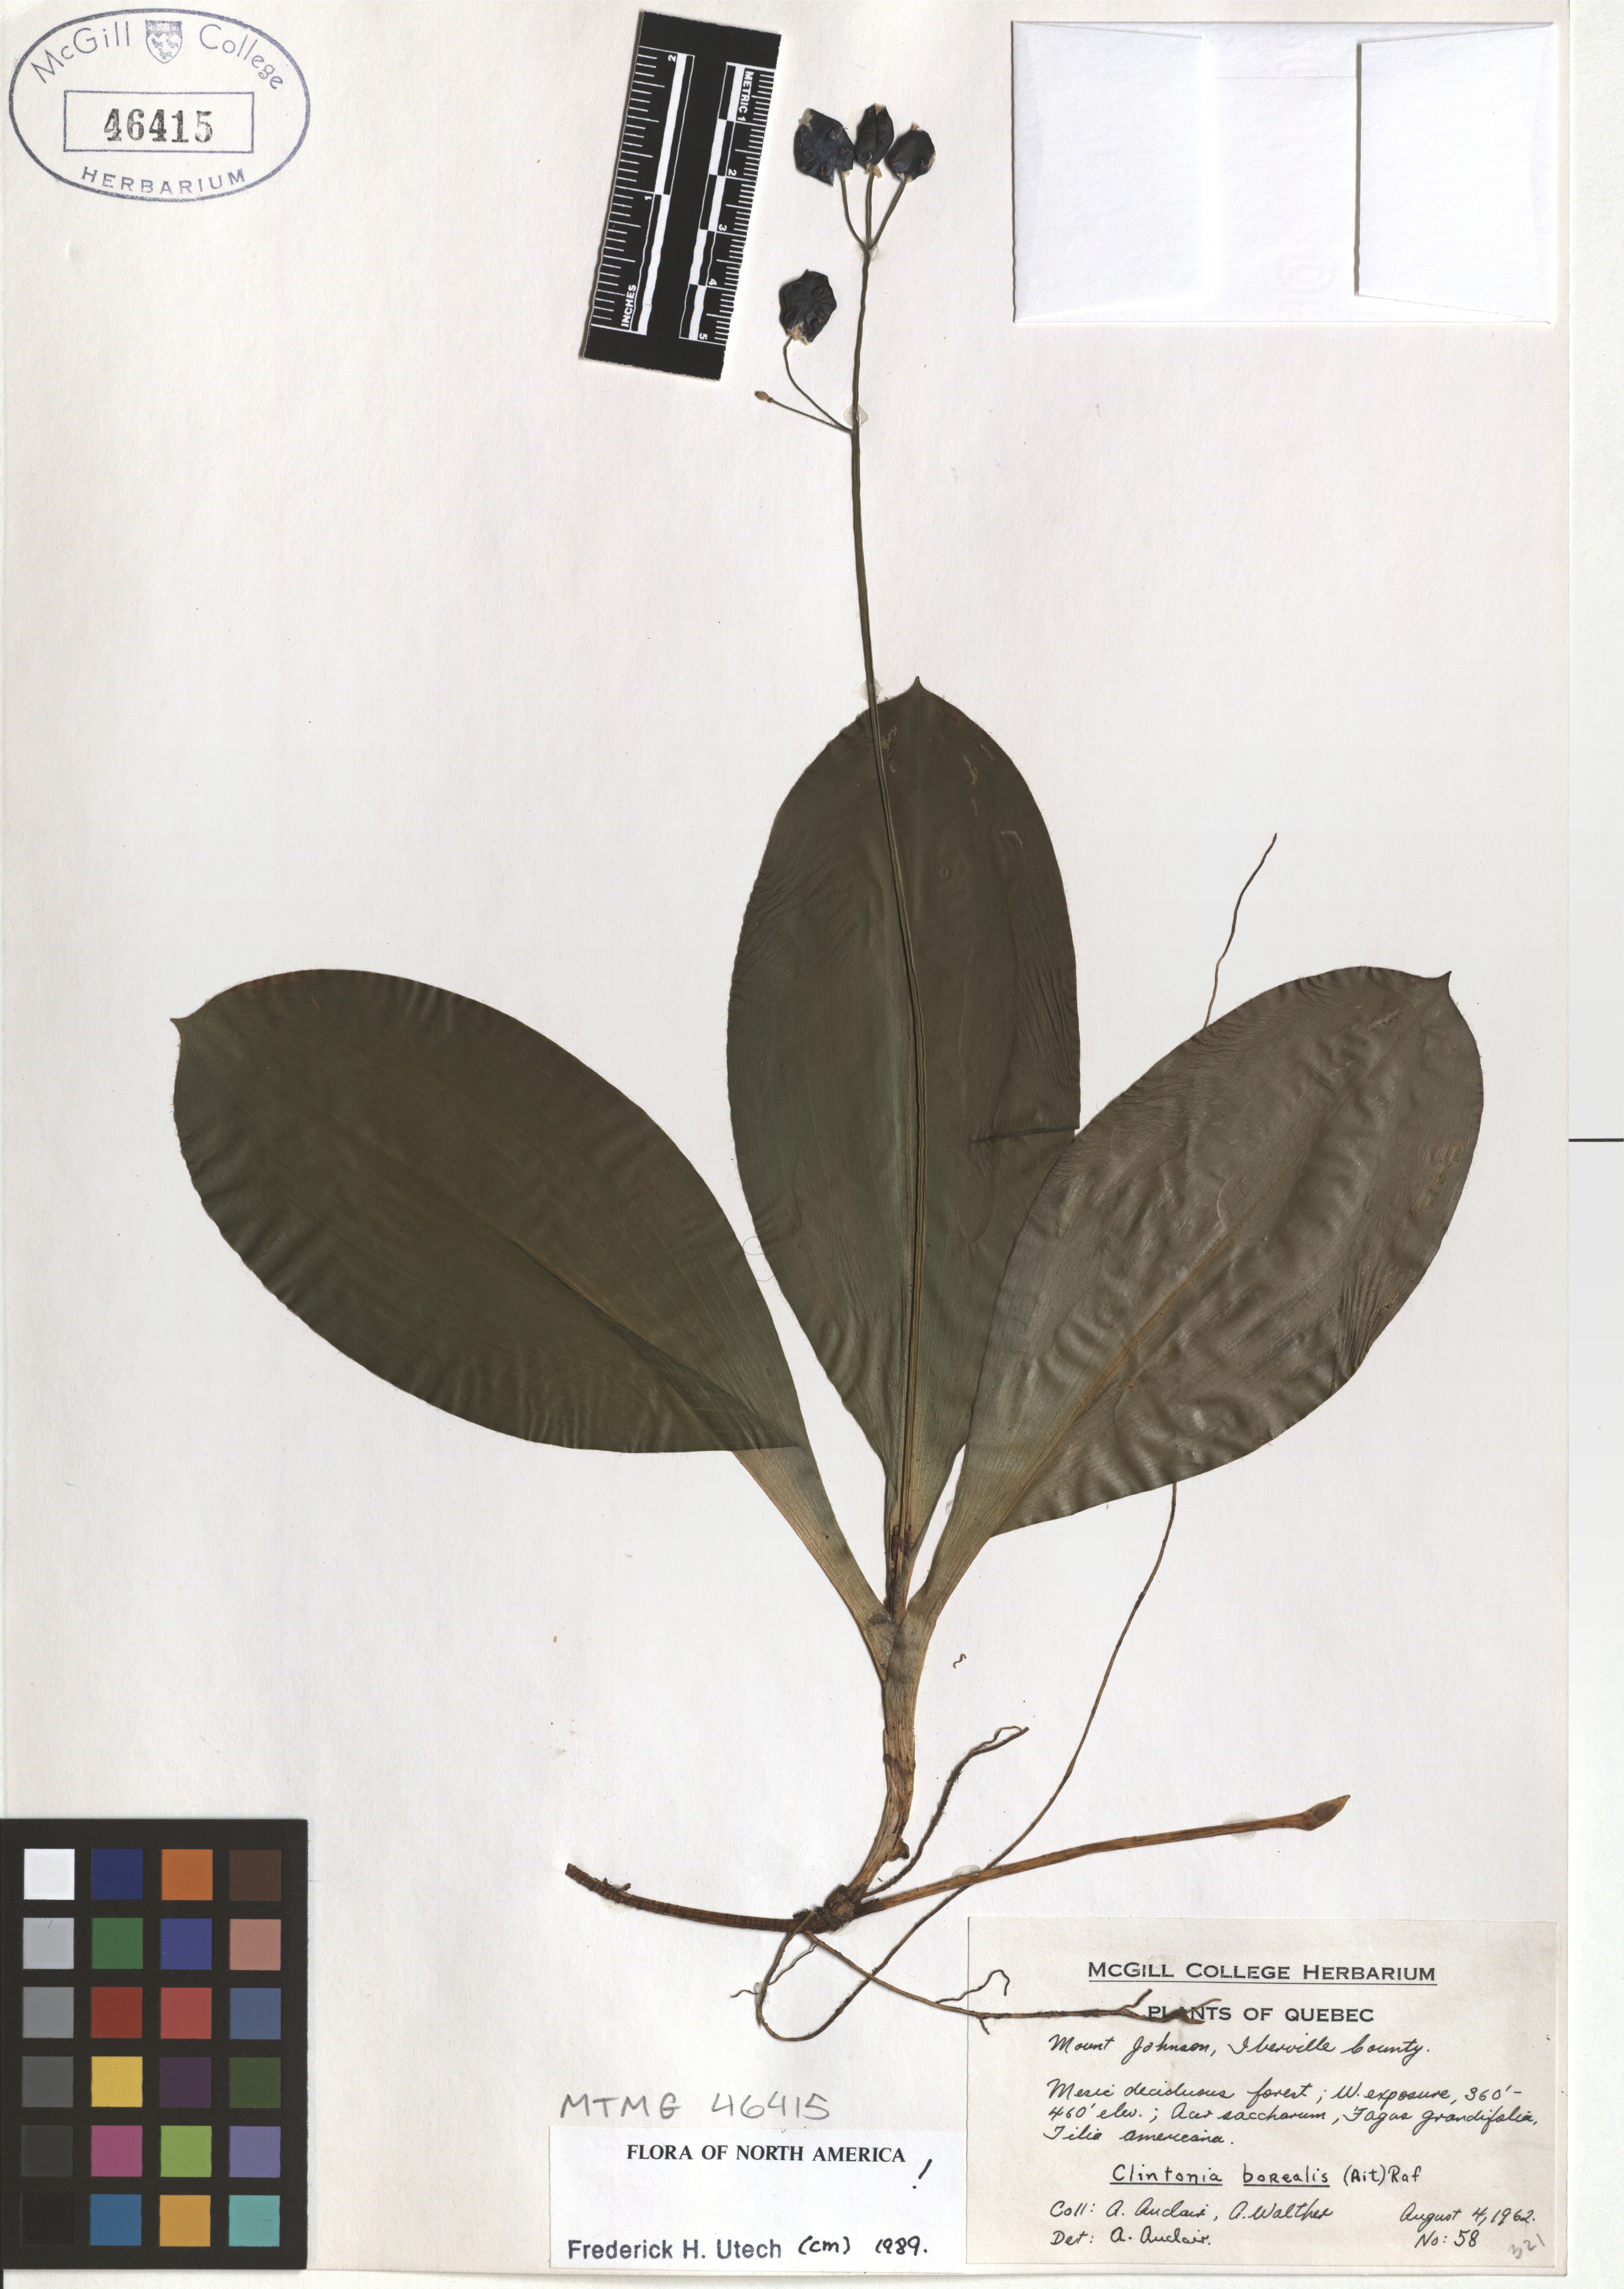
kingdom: Plantae
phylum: Tracheophyta
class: Liliopsida
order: Liliales
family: Liliaceae
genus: Clintonia
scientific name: Clintonia borealis
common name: Yellow clintonia
